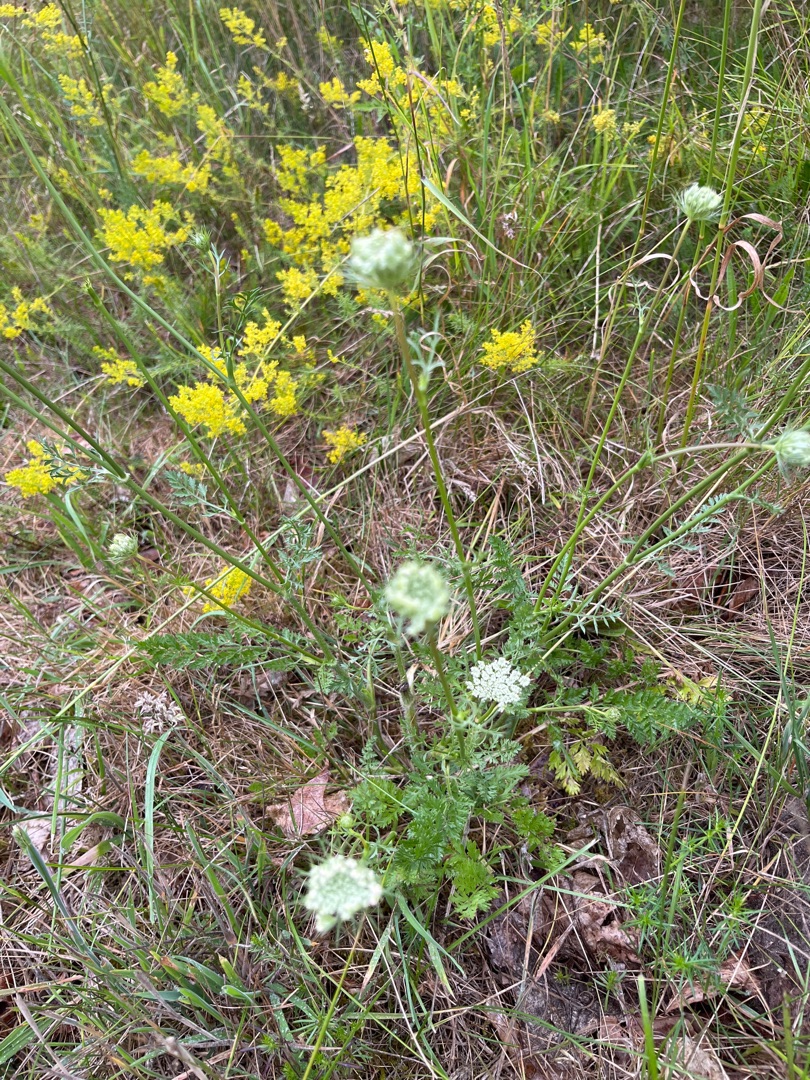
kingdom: Plantae
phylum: Tracheophyta
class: Magnoliopsida
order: Apiales
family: Apiaceae
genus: Daucus
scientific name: Daucus carota
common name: Gulerod
